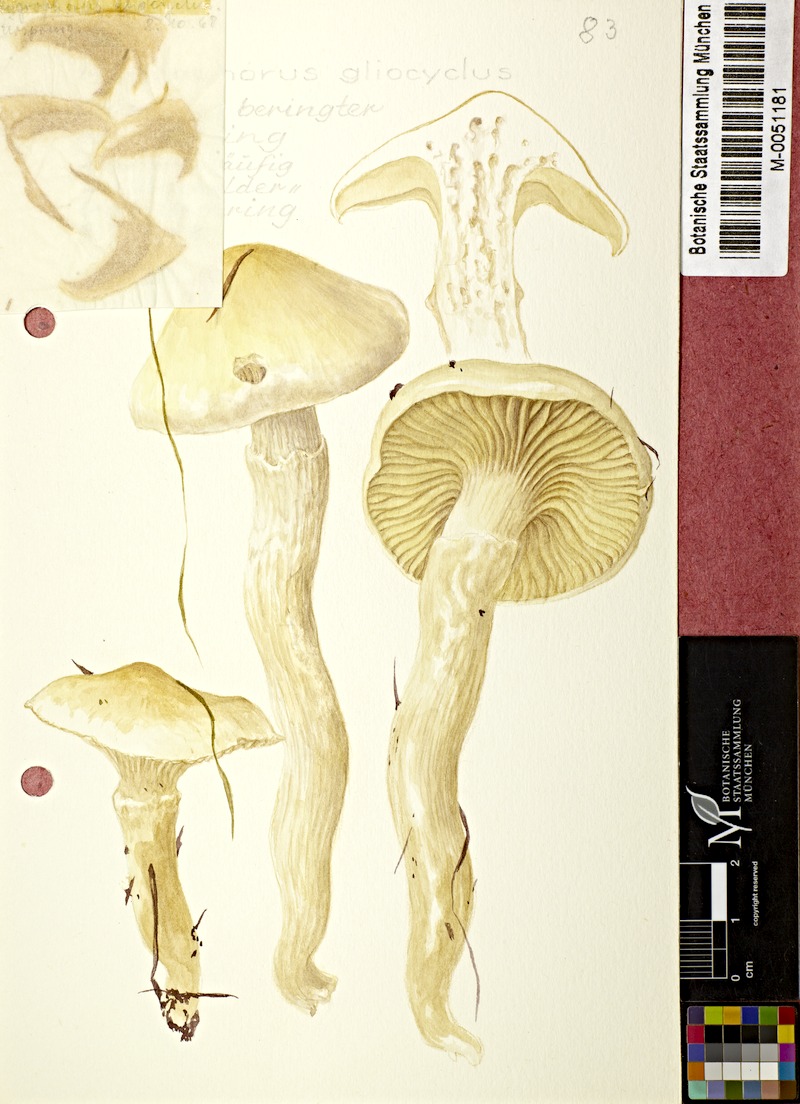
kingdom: Fungi
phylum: Basidiomycota
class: Agaricomycetes
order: Agaricales
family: Hygrophoraceae
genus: Hygrophorus
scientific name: Hygrophorus ligatus
